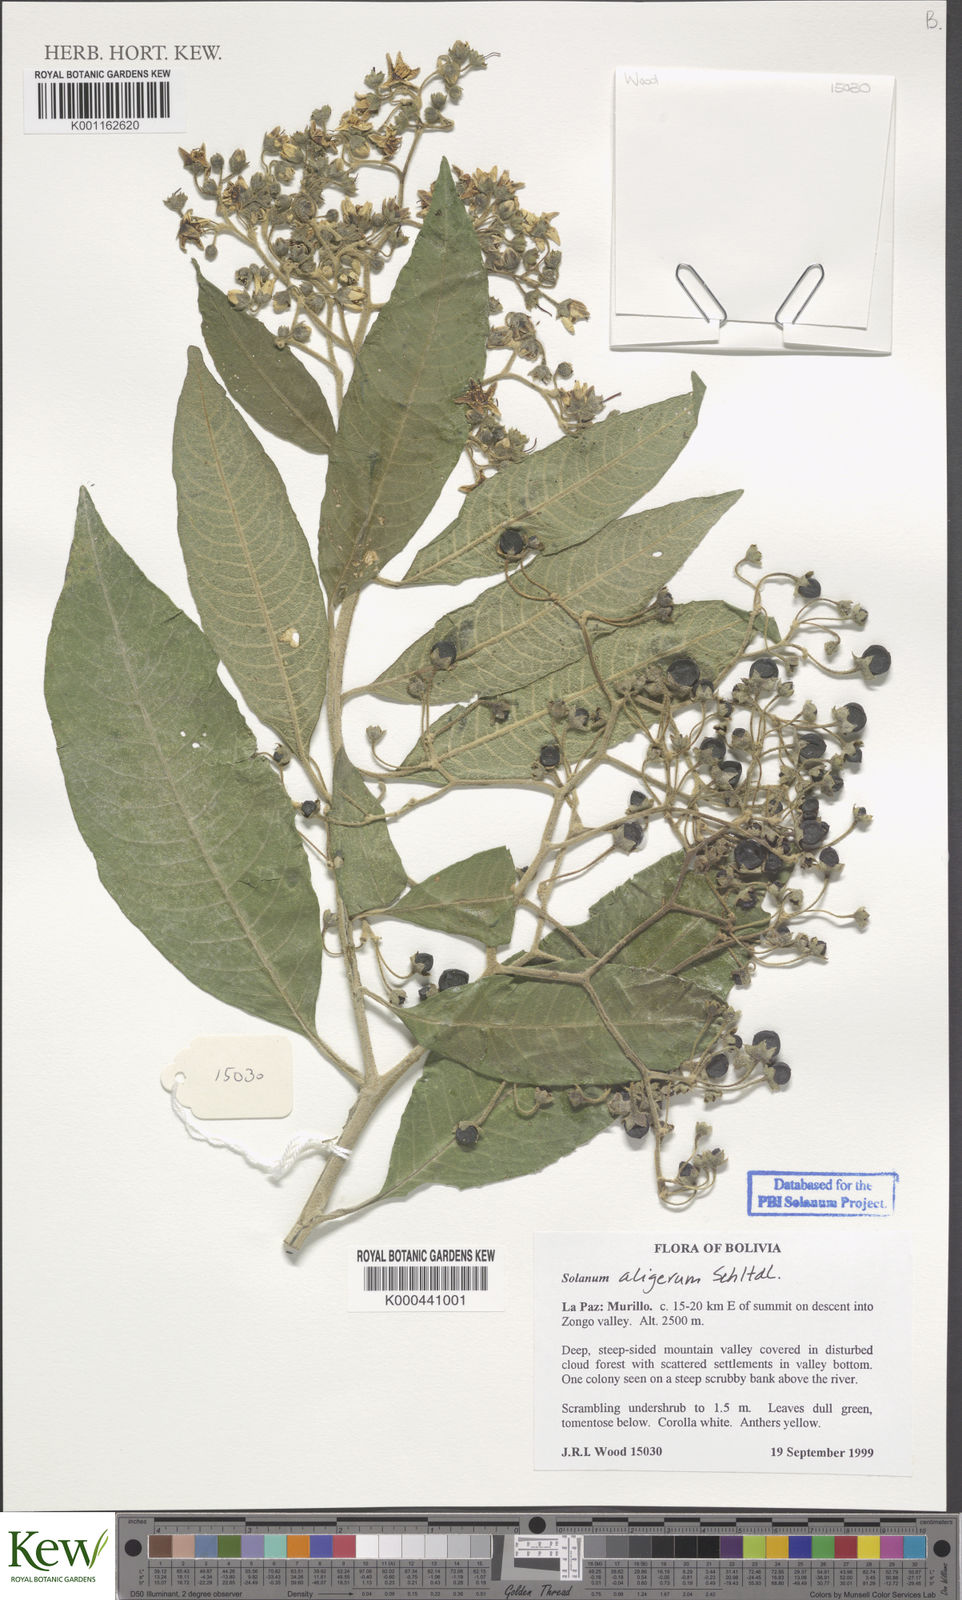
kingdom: Plantae
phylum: Tracheophyta
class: Magnoliopsida
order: Solanales
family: Solanaceae
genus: Solanum
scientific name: Solanum aligerum
